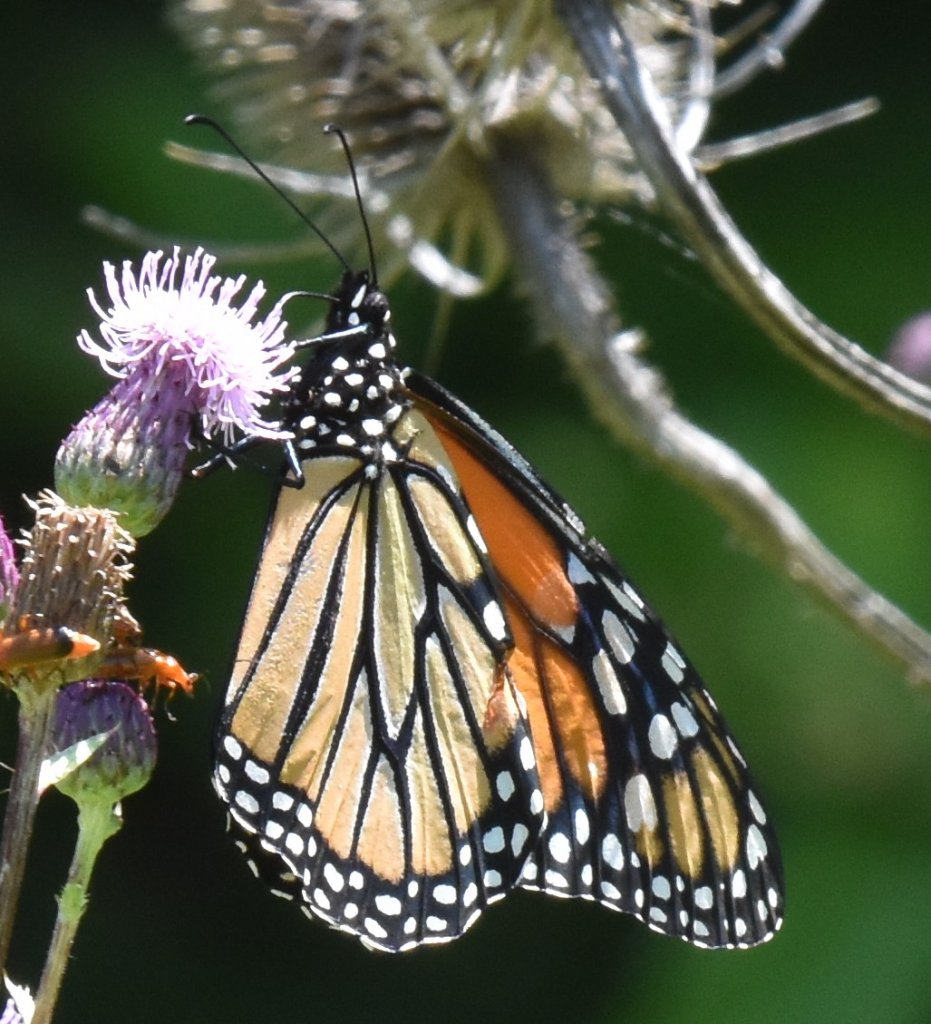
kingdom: Animalia
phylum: Arthropoda
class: Insecta
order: Lepidoptera
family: Nymphalidae
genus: Danaus
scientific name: Danaus plexippus
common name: Monarch
